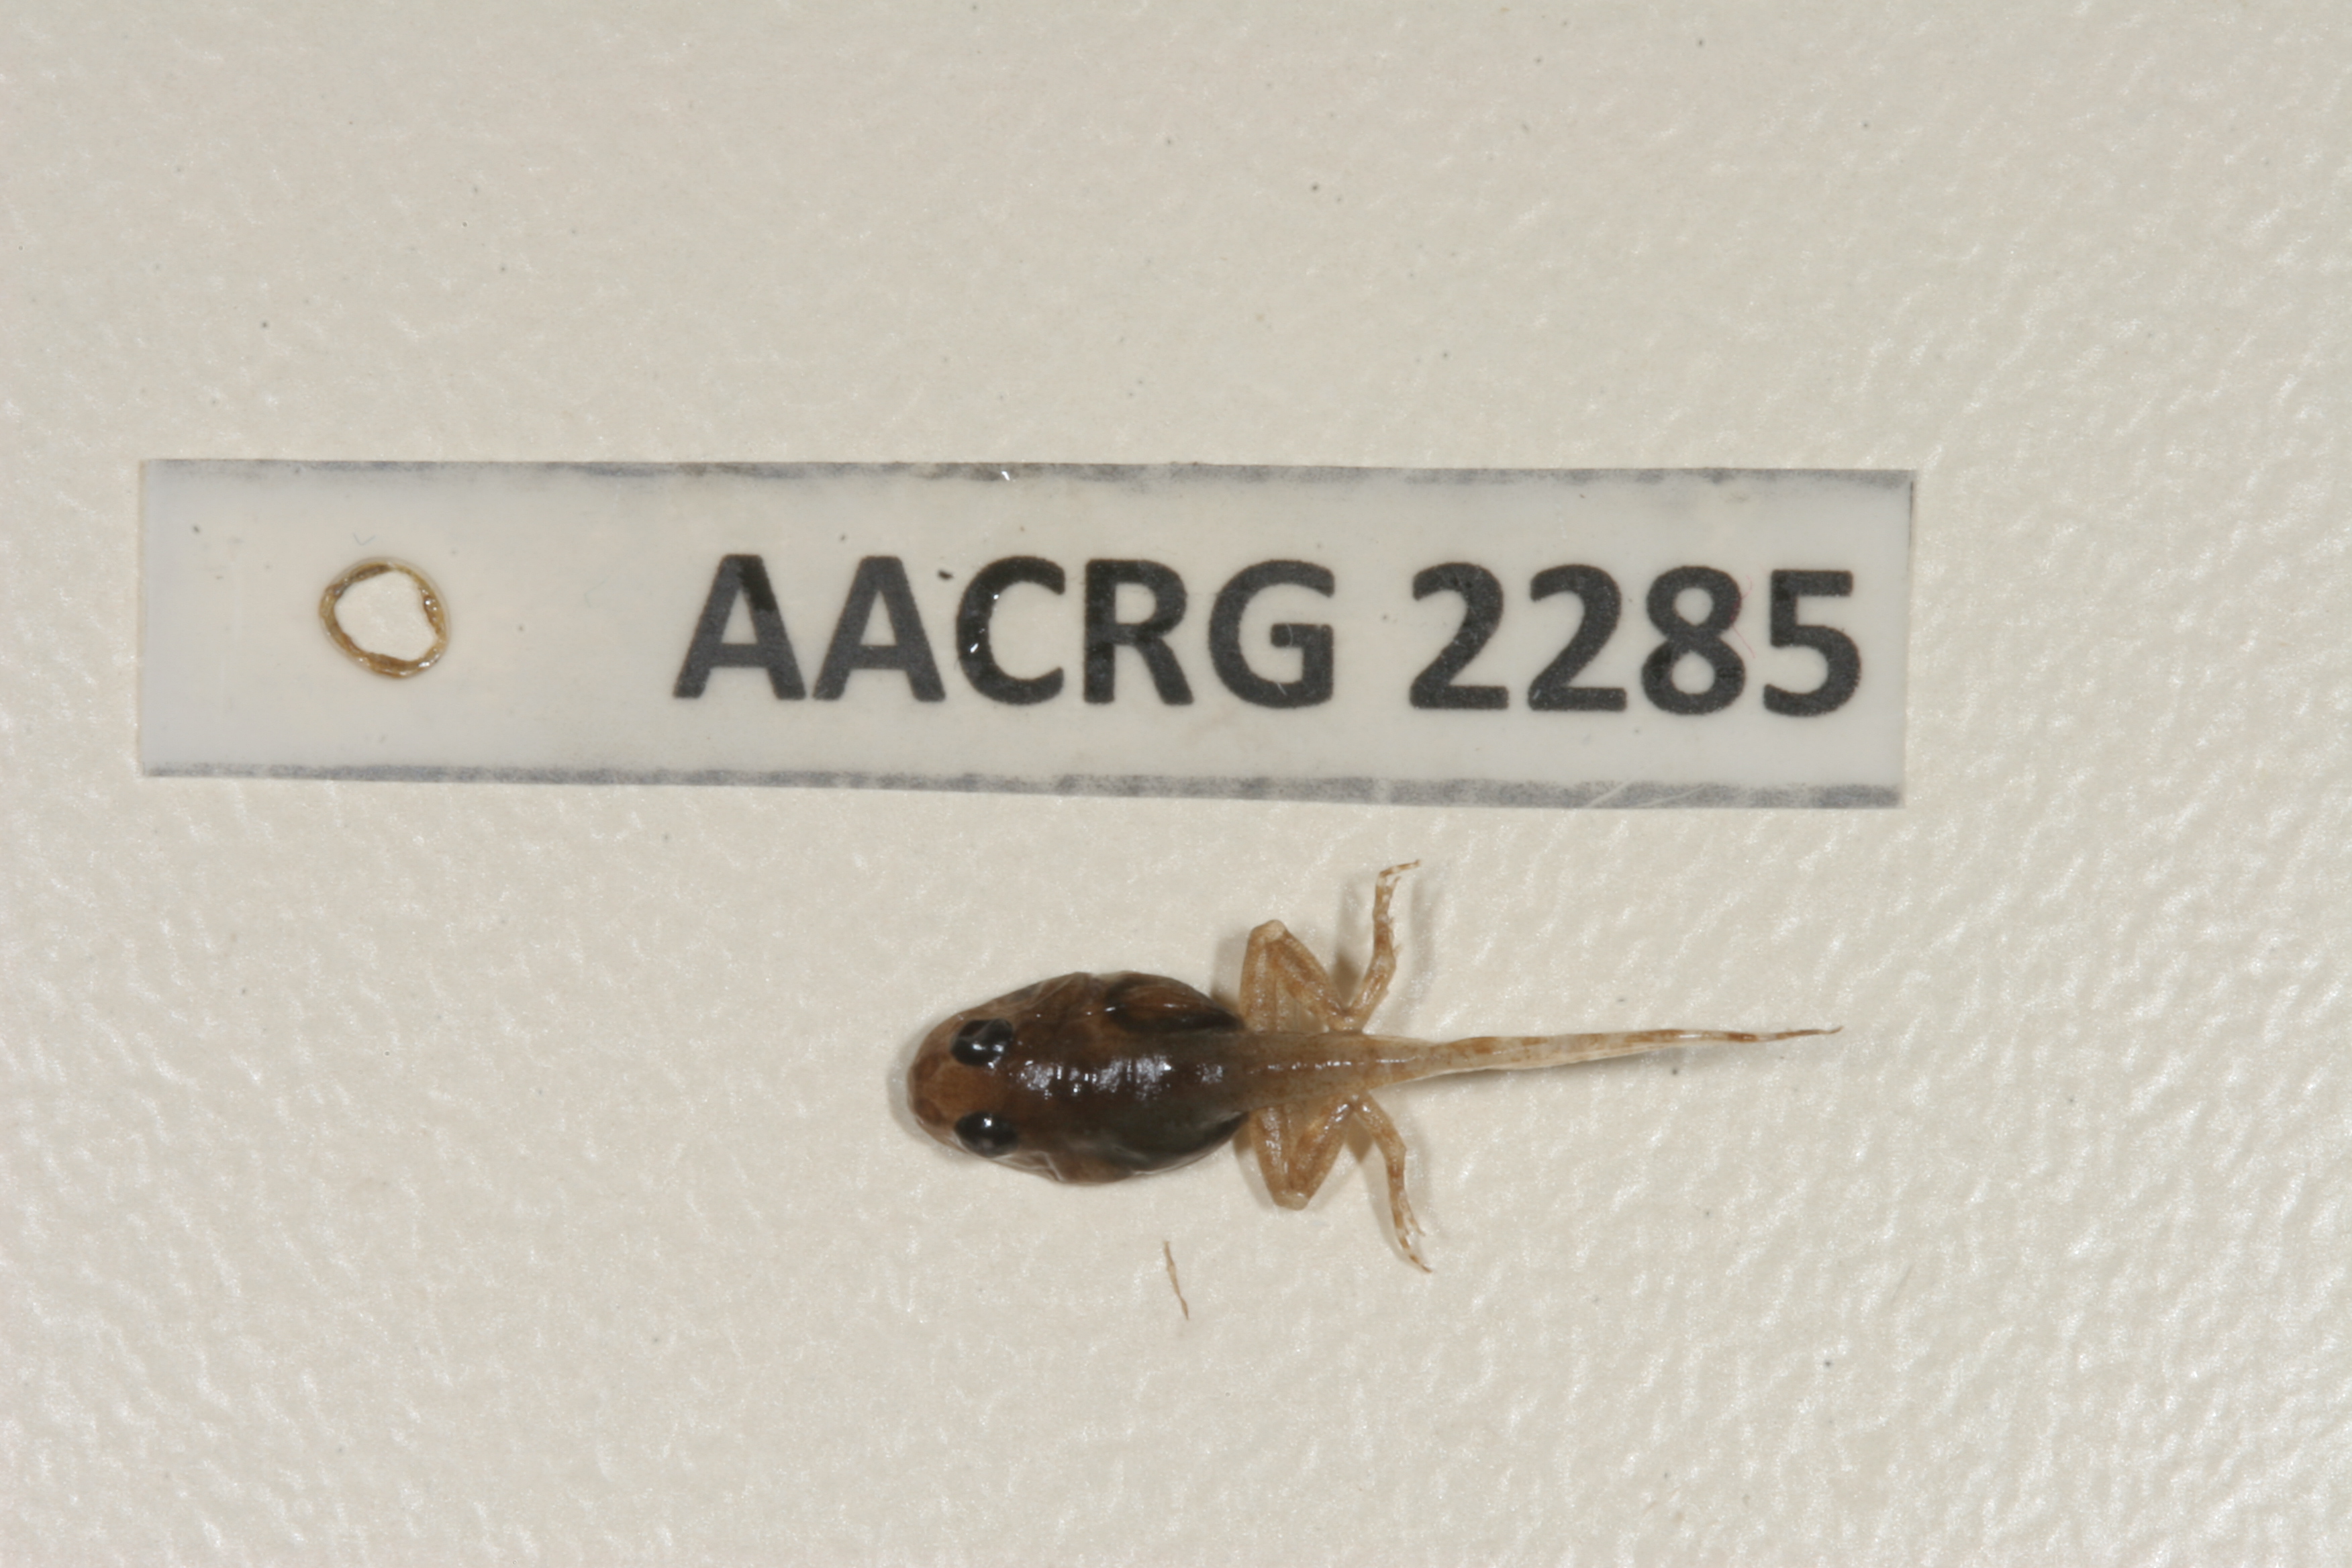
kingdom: Animalia
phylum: Chordata
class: Amphibia
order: Anura
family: Phrynobatrachidae
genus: Phrynobatrachus
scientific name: Phrynobatrachus mababiensis
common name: Dwarf puddle frog
